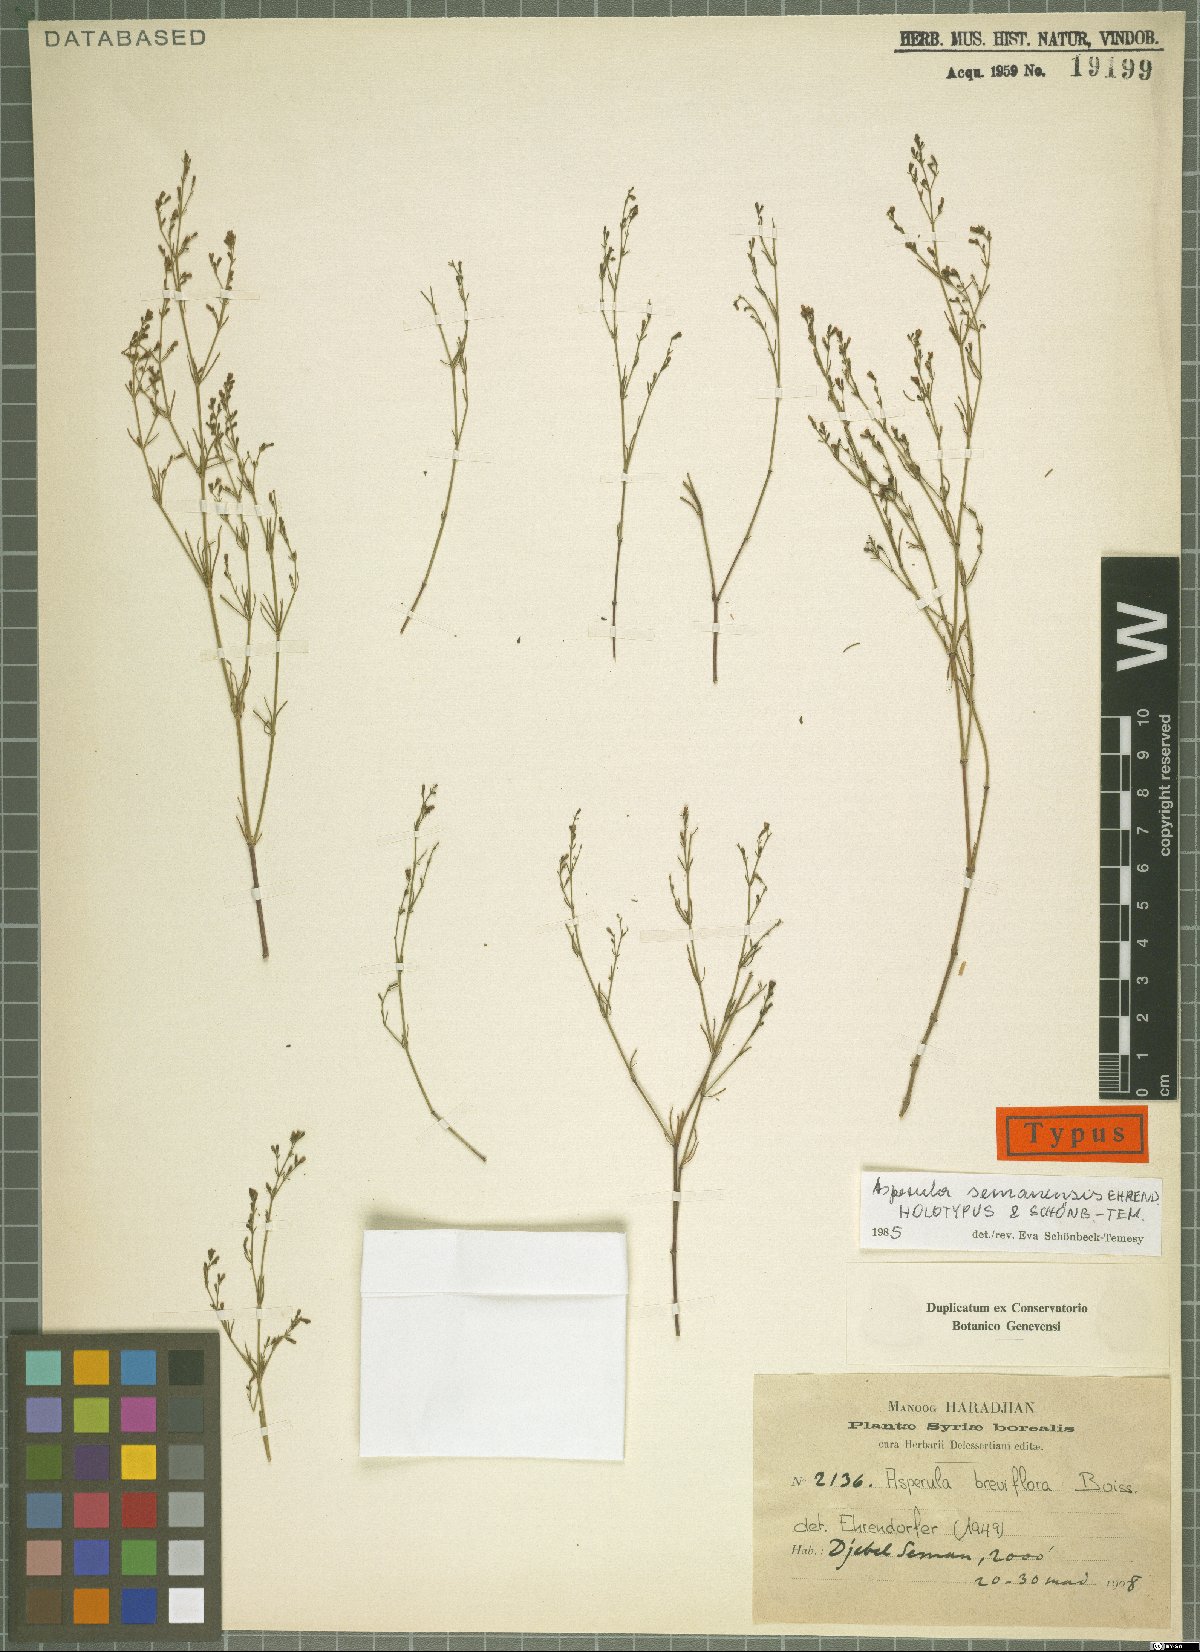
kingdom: Plantae
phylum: Tracheophyta
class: Magnoliopsida
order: Gentianales
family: Rubiaceae
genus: Thliphthisa
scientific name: Thliphthisa semanensis
